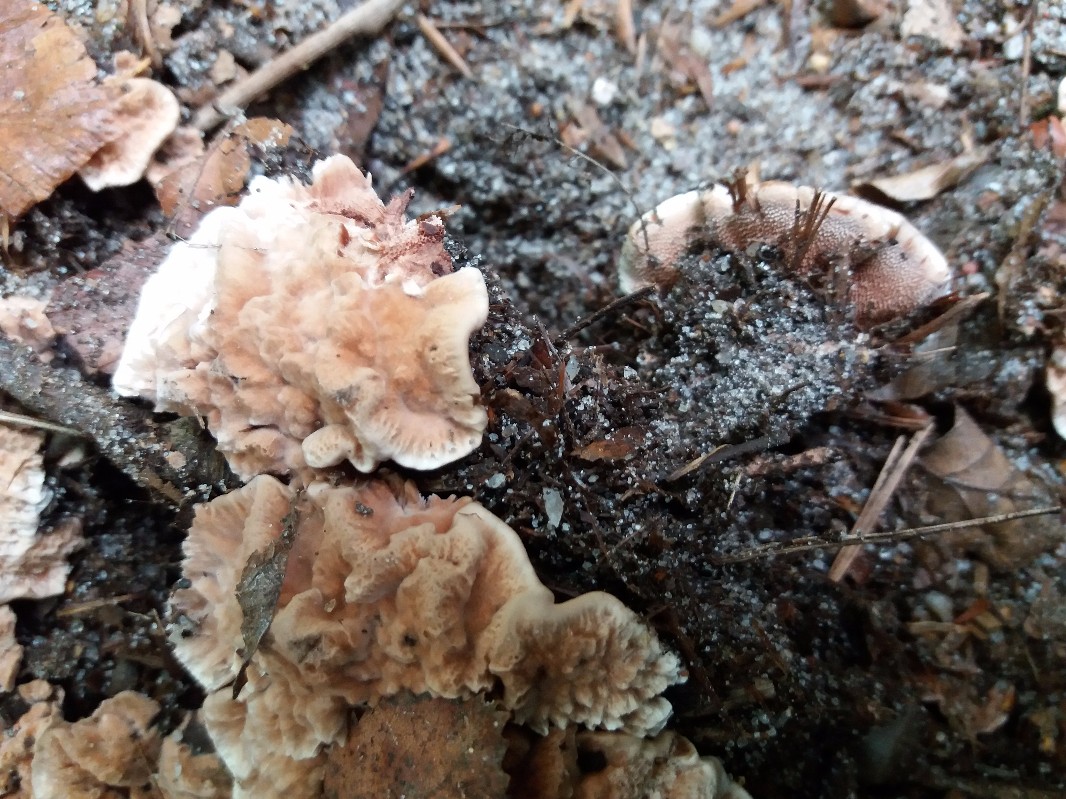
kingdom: Fungi
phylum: Basidiomycota
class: Agaricomycetes
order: Thelephorales
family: Bankeraceae
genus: Hydnellum
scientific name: Hydnellum cumulatum
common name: Rosette tooth
